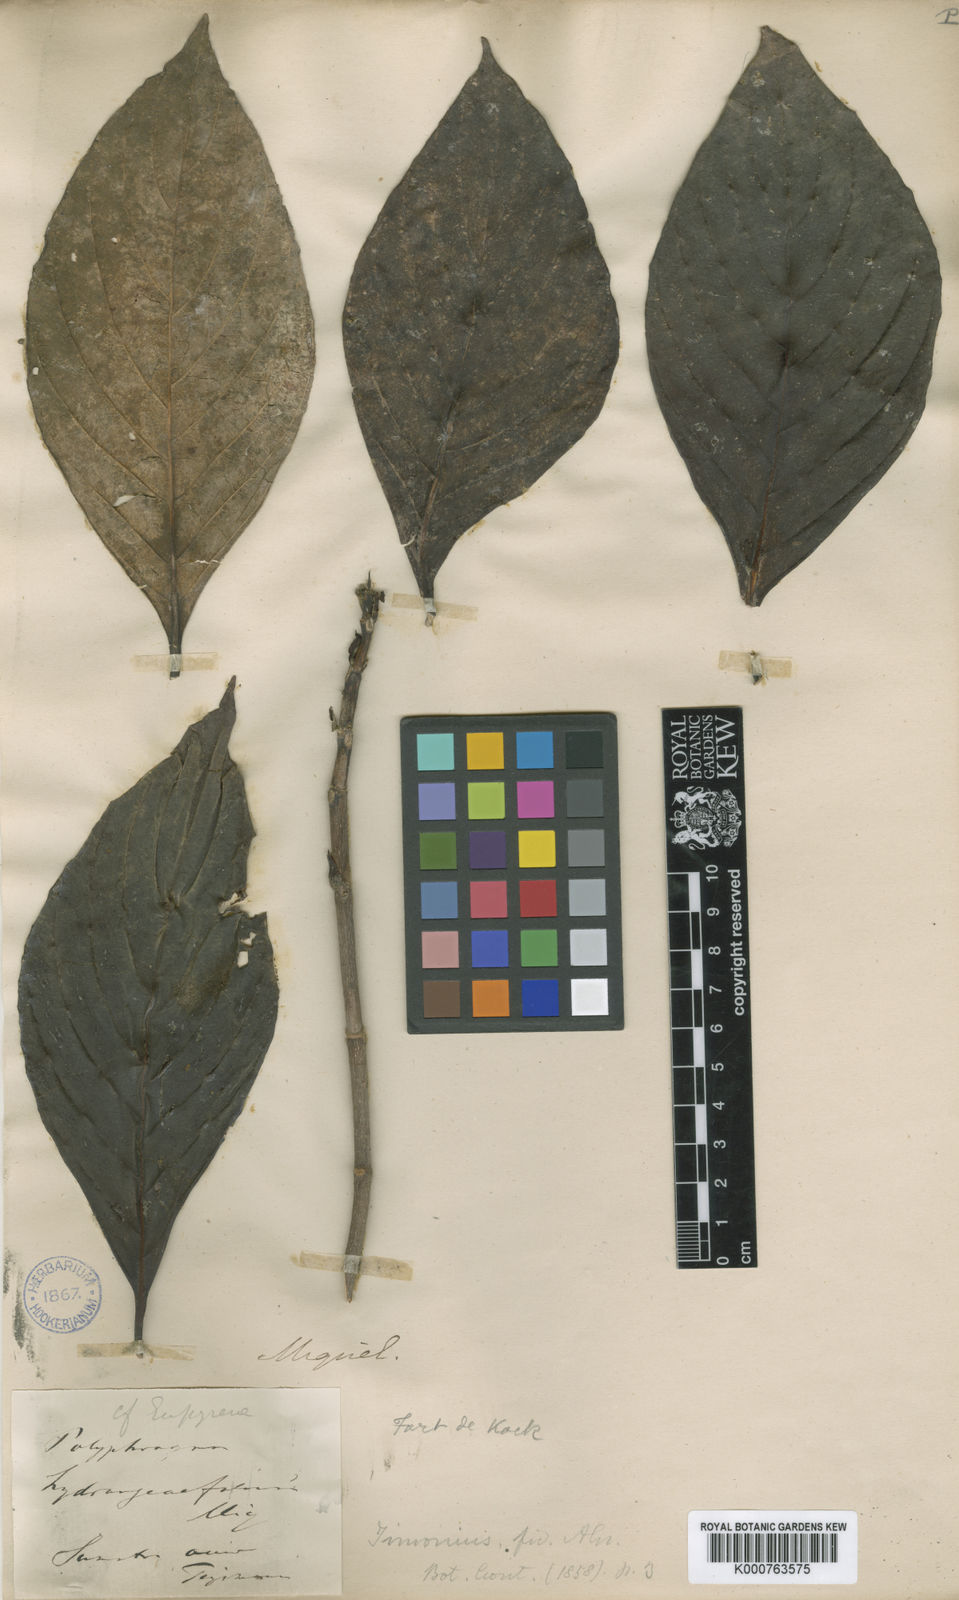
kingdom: Plantae
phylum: Tracheophyta
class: Magnoliopsida
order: Gentianales
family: Rubiaceae
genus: Timonius
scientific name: Timonius hydrangeifolius
